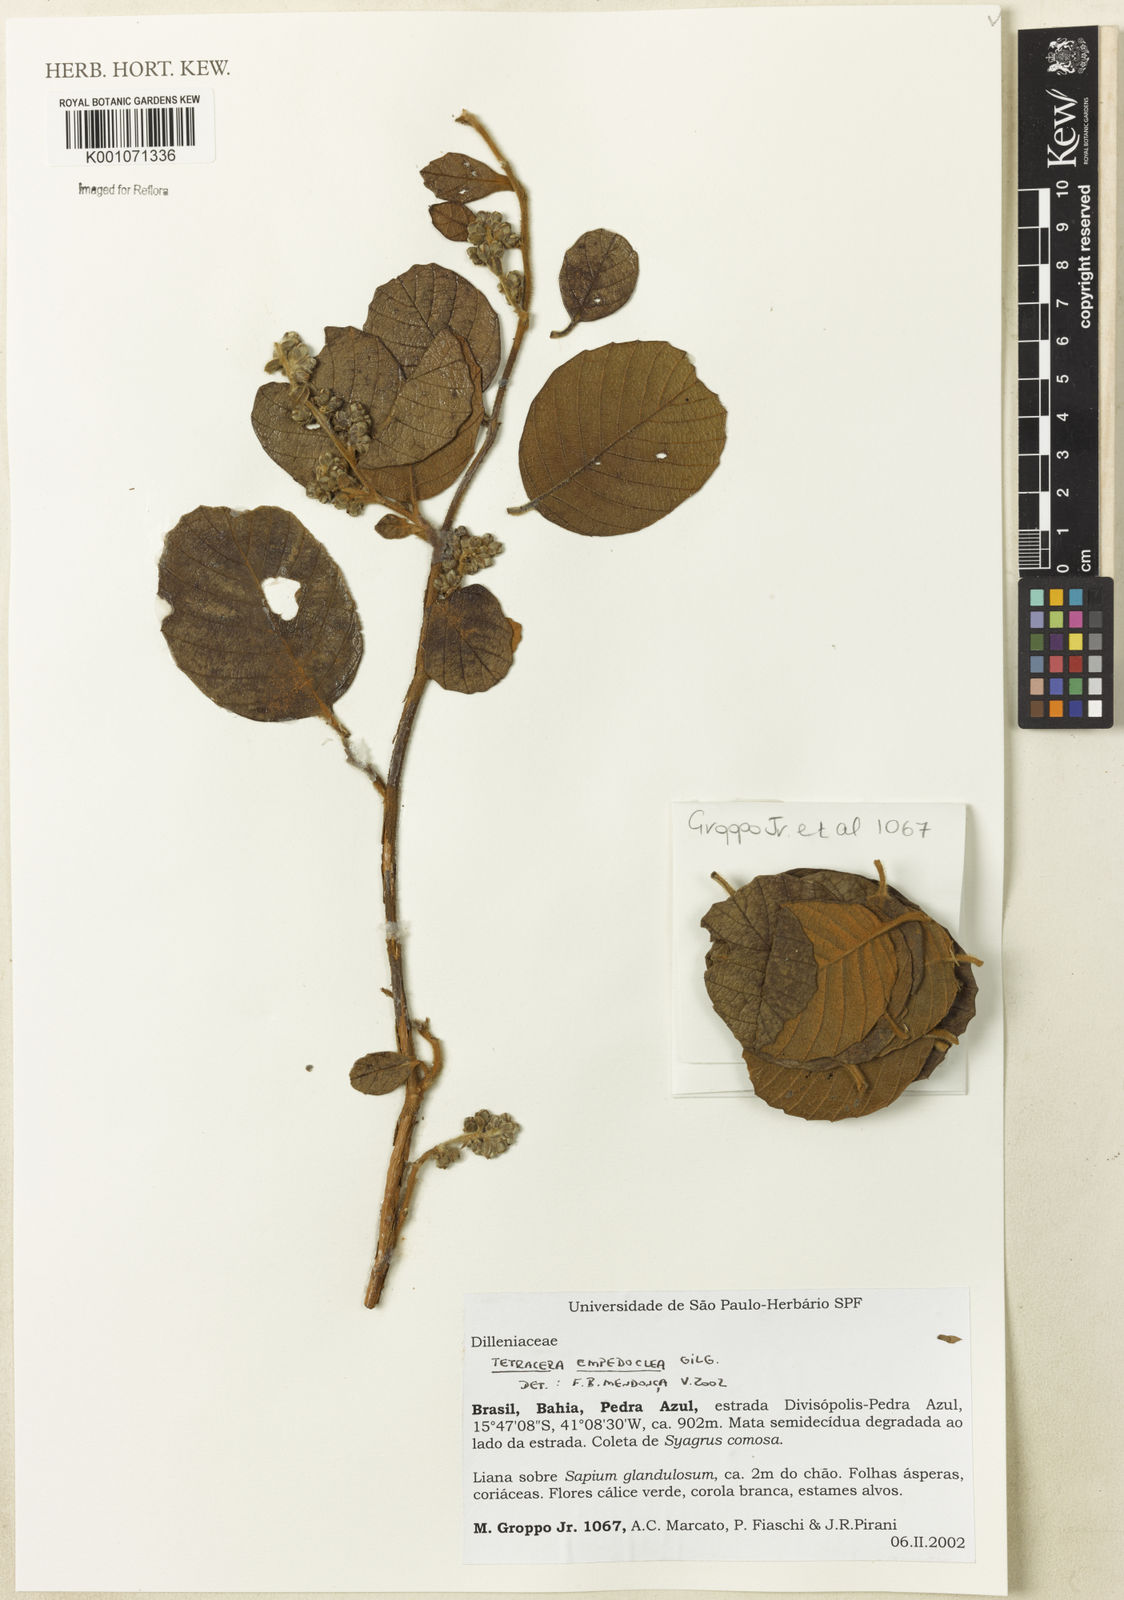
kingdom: Plantae
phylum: Tracheophyta
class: Magnoliopsida
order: Dilleniales
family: Dilleniaceae
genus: Tetracera
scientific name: Tetracera empedoclea
